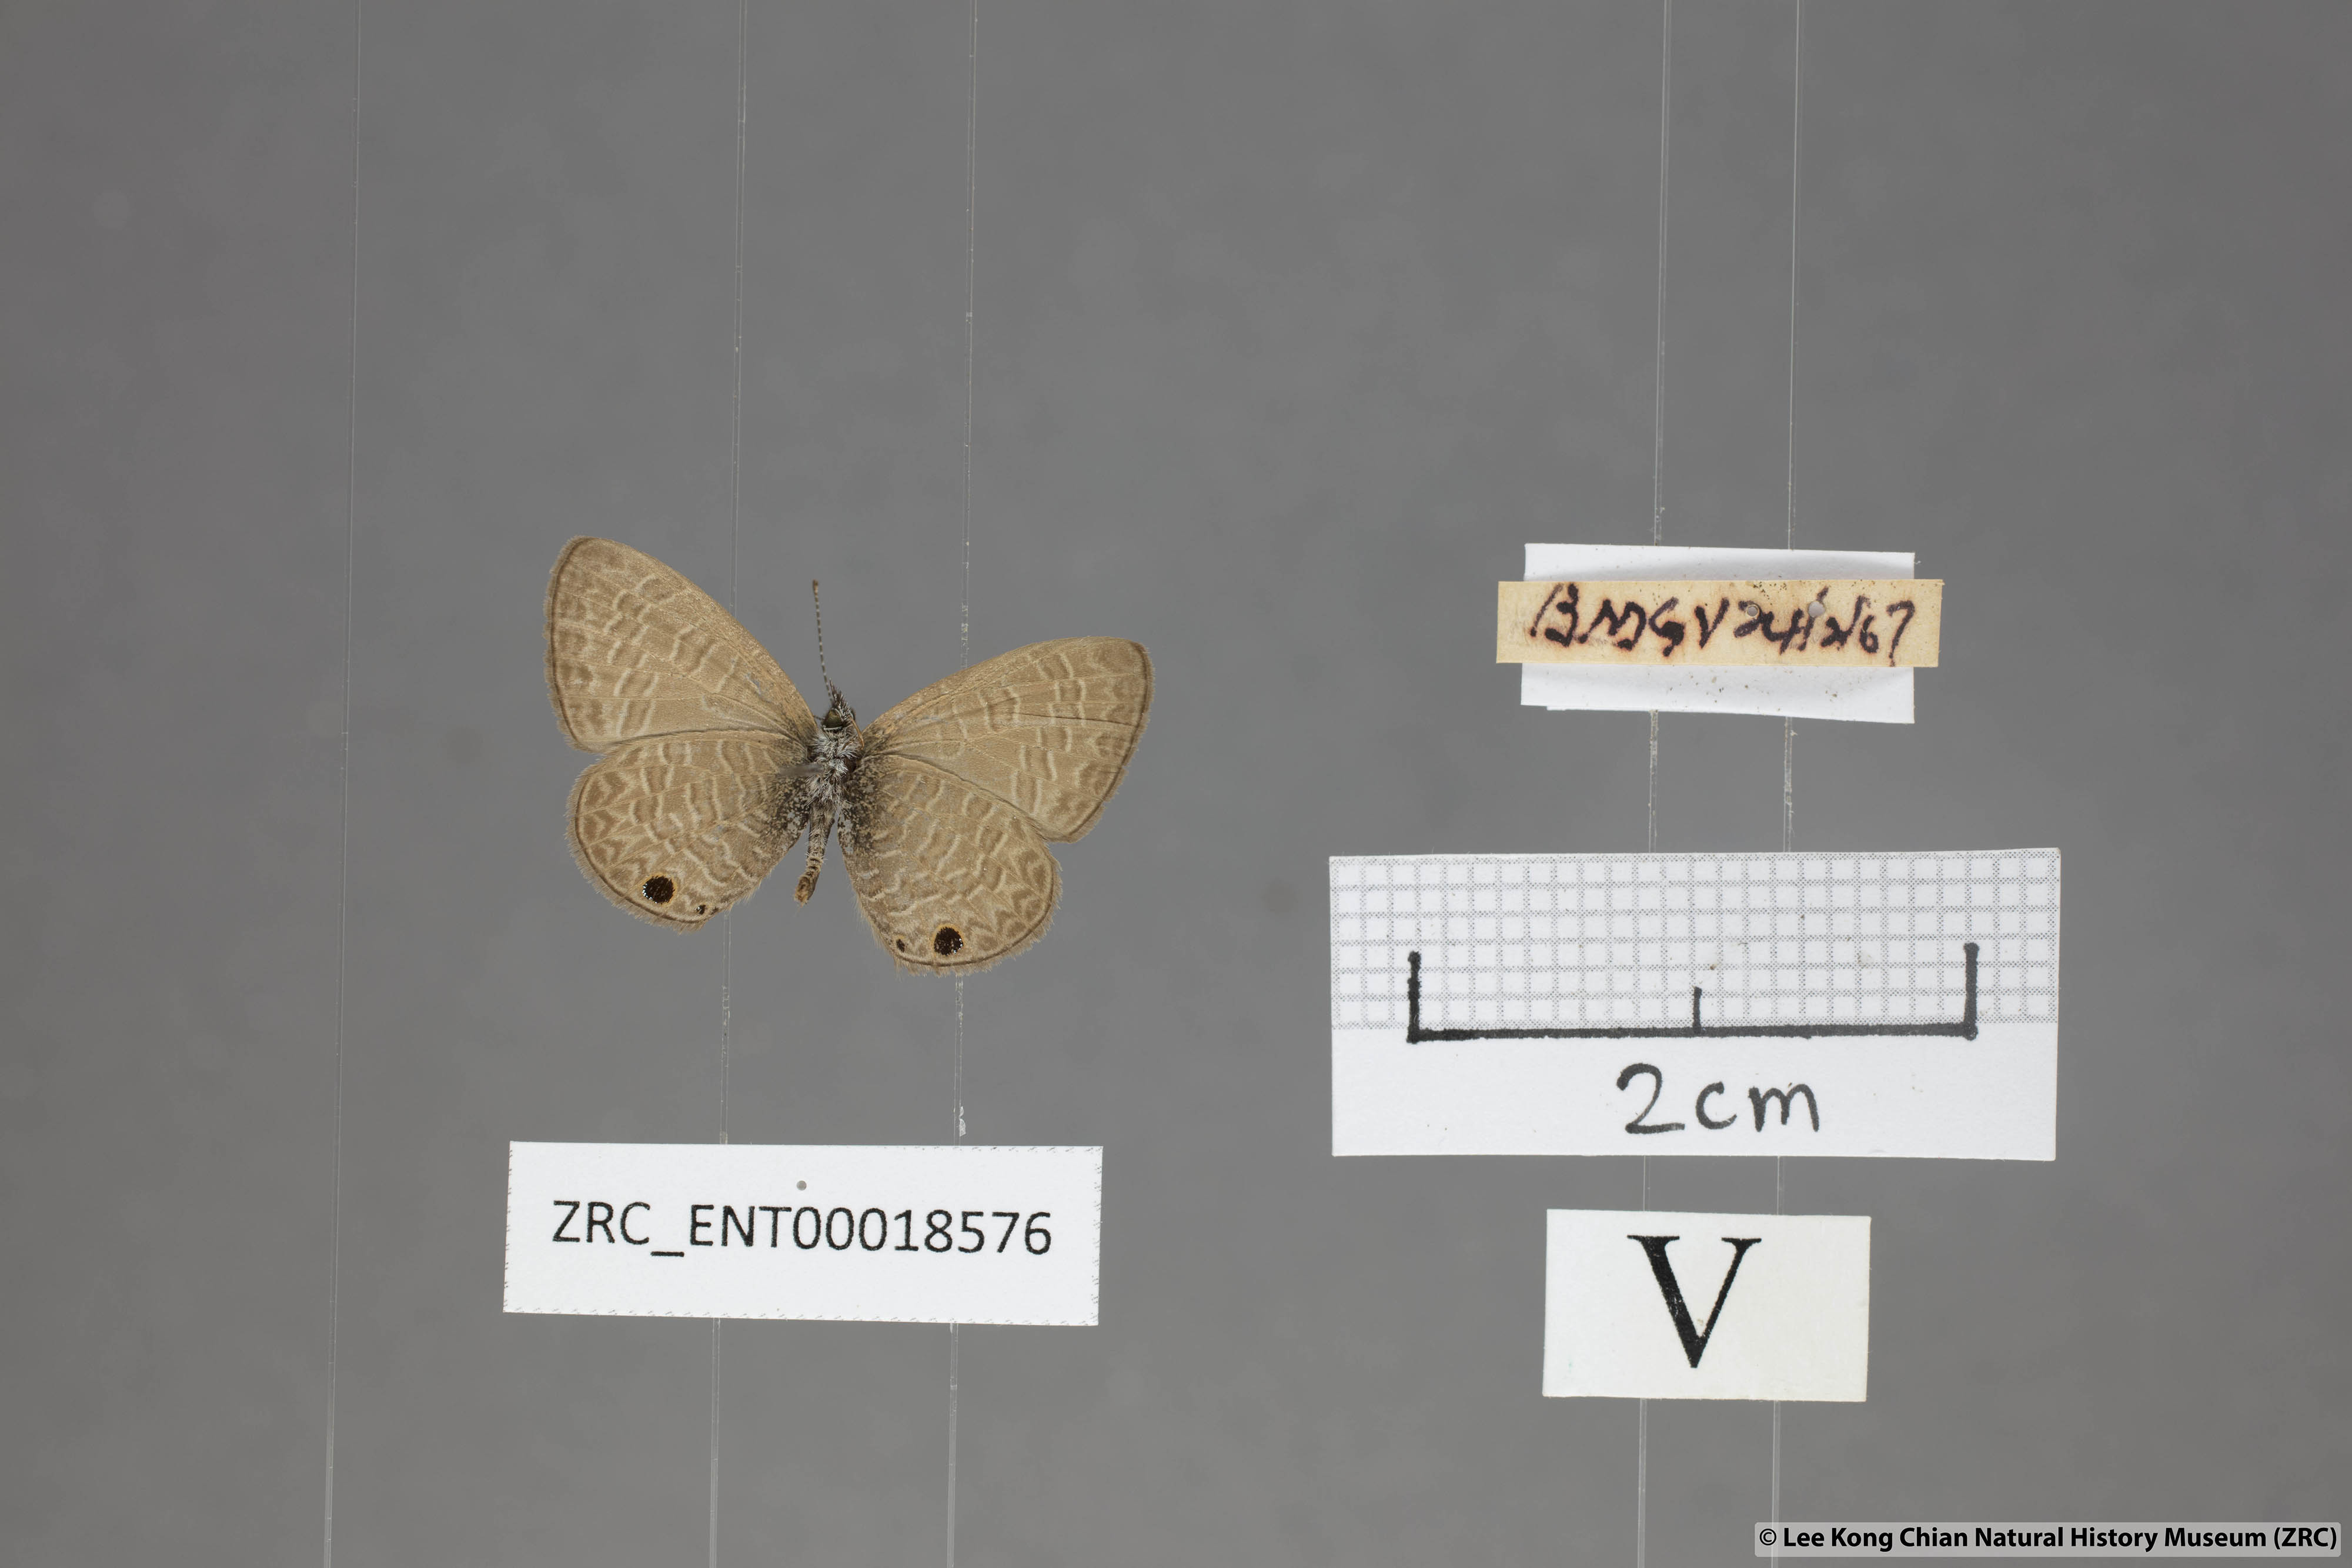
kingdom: Animalia
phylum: Arthropoda
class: Insecta
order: Lepidoptera
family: Lycaenidae
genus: Prosotas
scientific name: Prosotas dubiosa
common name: Tailless lineblue
